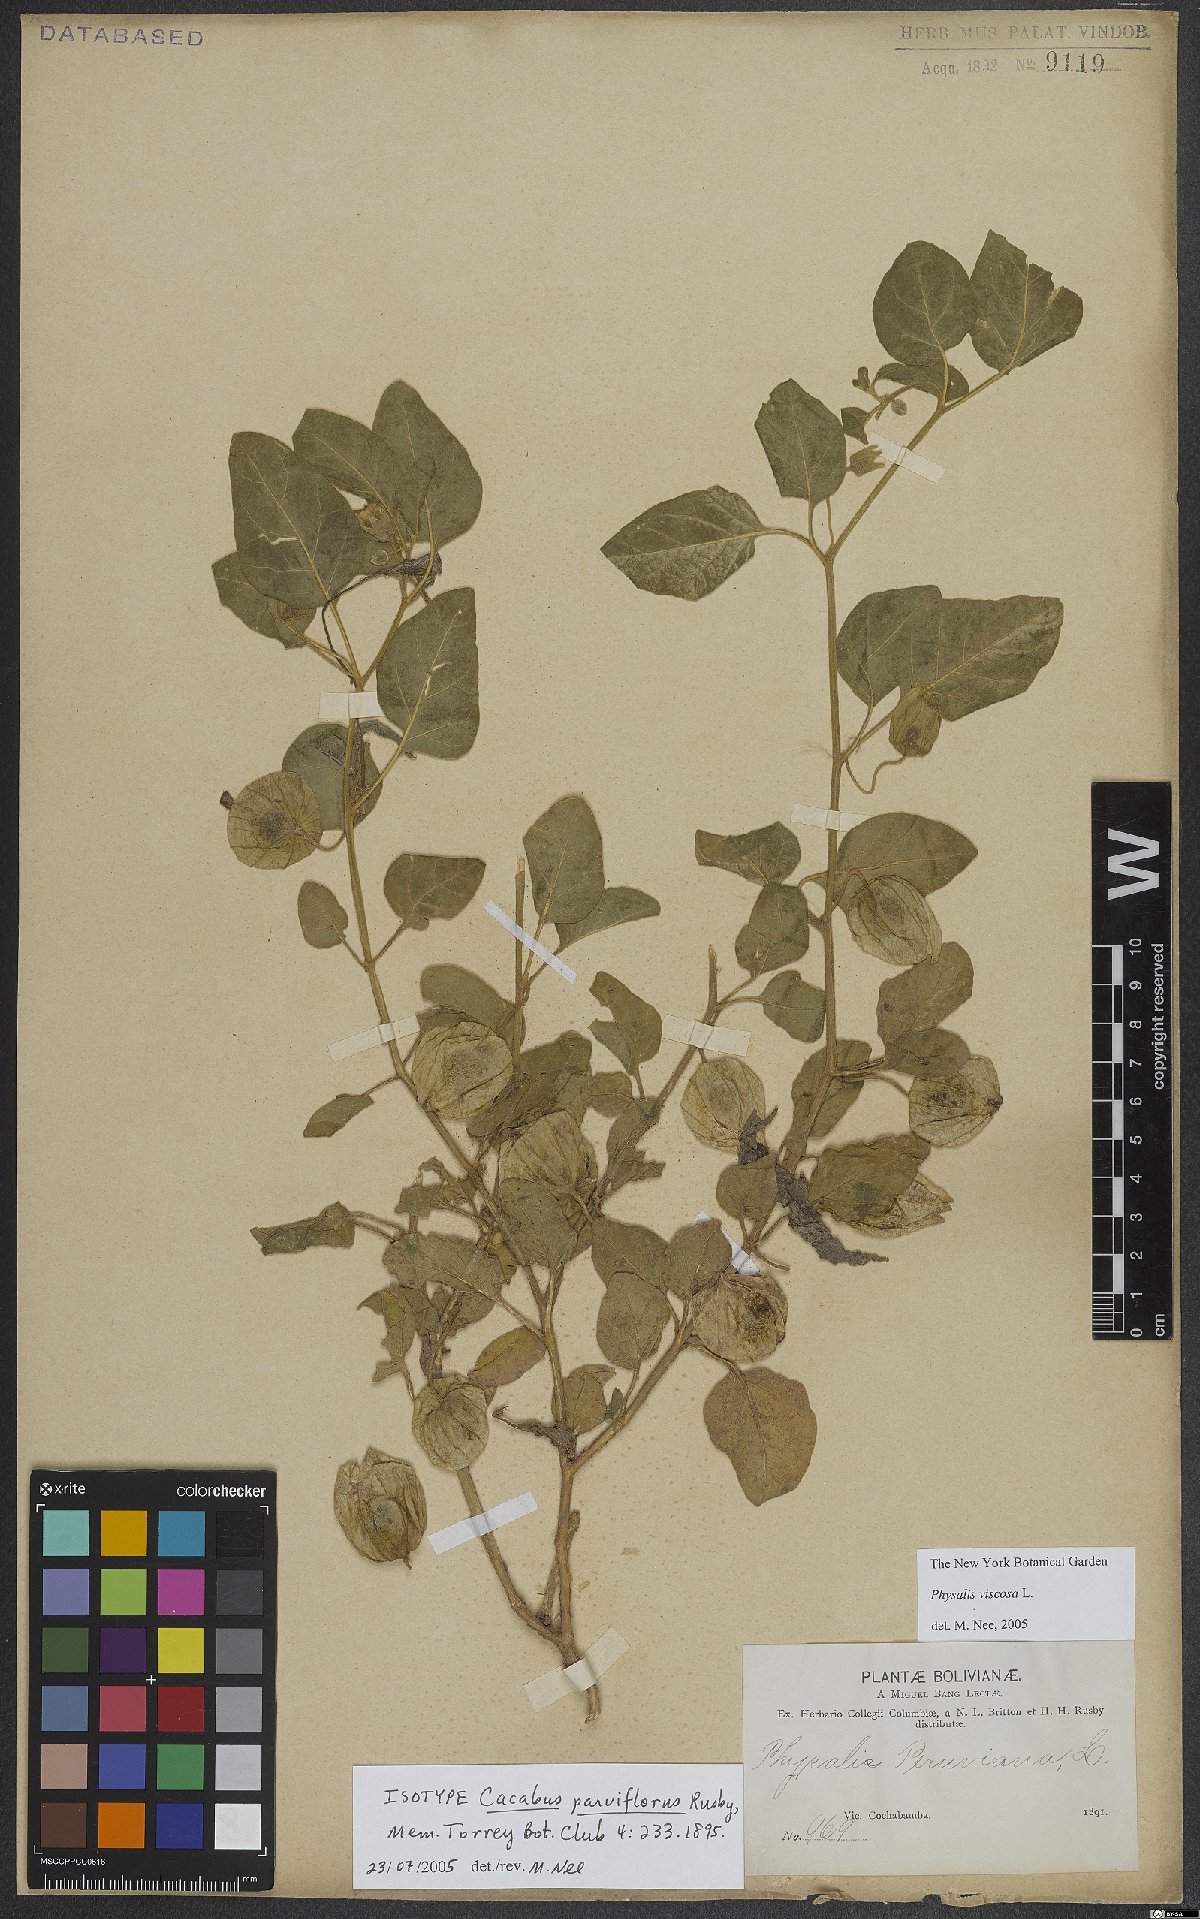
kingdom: Plantae
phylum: Tracheophyta
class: Magnoliopsida
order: Solanales
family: Solanaceae
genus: Physalis
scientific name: Physalis viscosa
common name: Stellate ground-cherry
